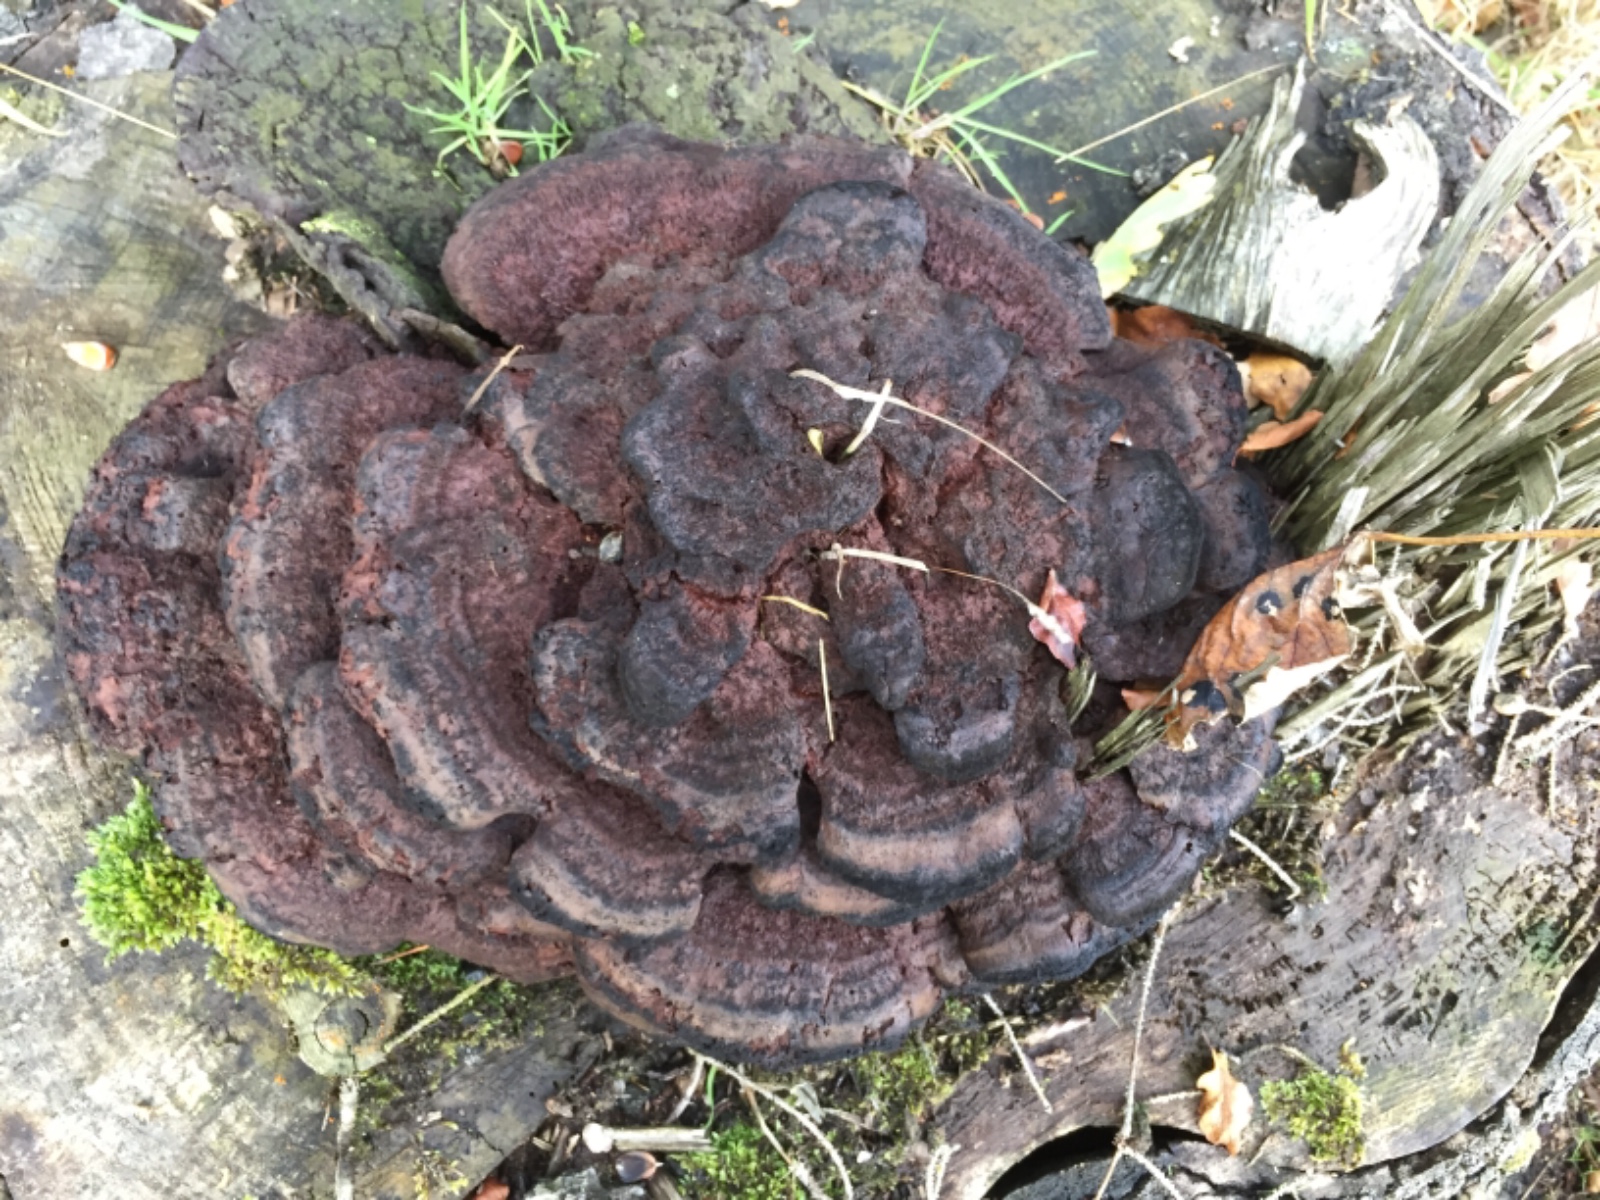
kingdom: Fungi
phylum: Basidiomycota
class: Agaricomycetes
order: Polyporales
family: Laetiporaceae
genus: Phaeolus
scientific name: Phaeolus schweinitzii
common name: brunporesvamp
